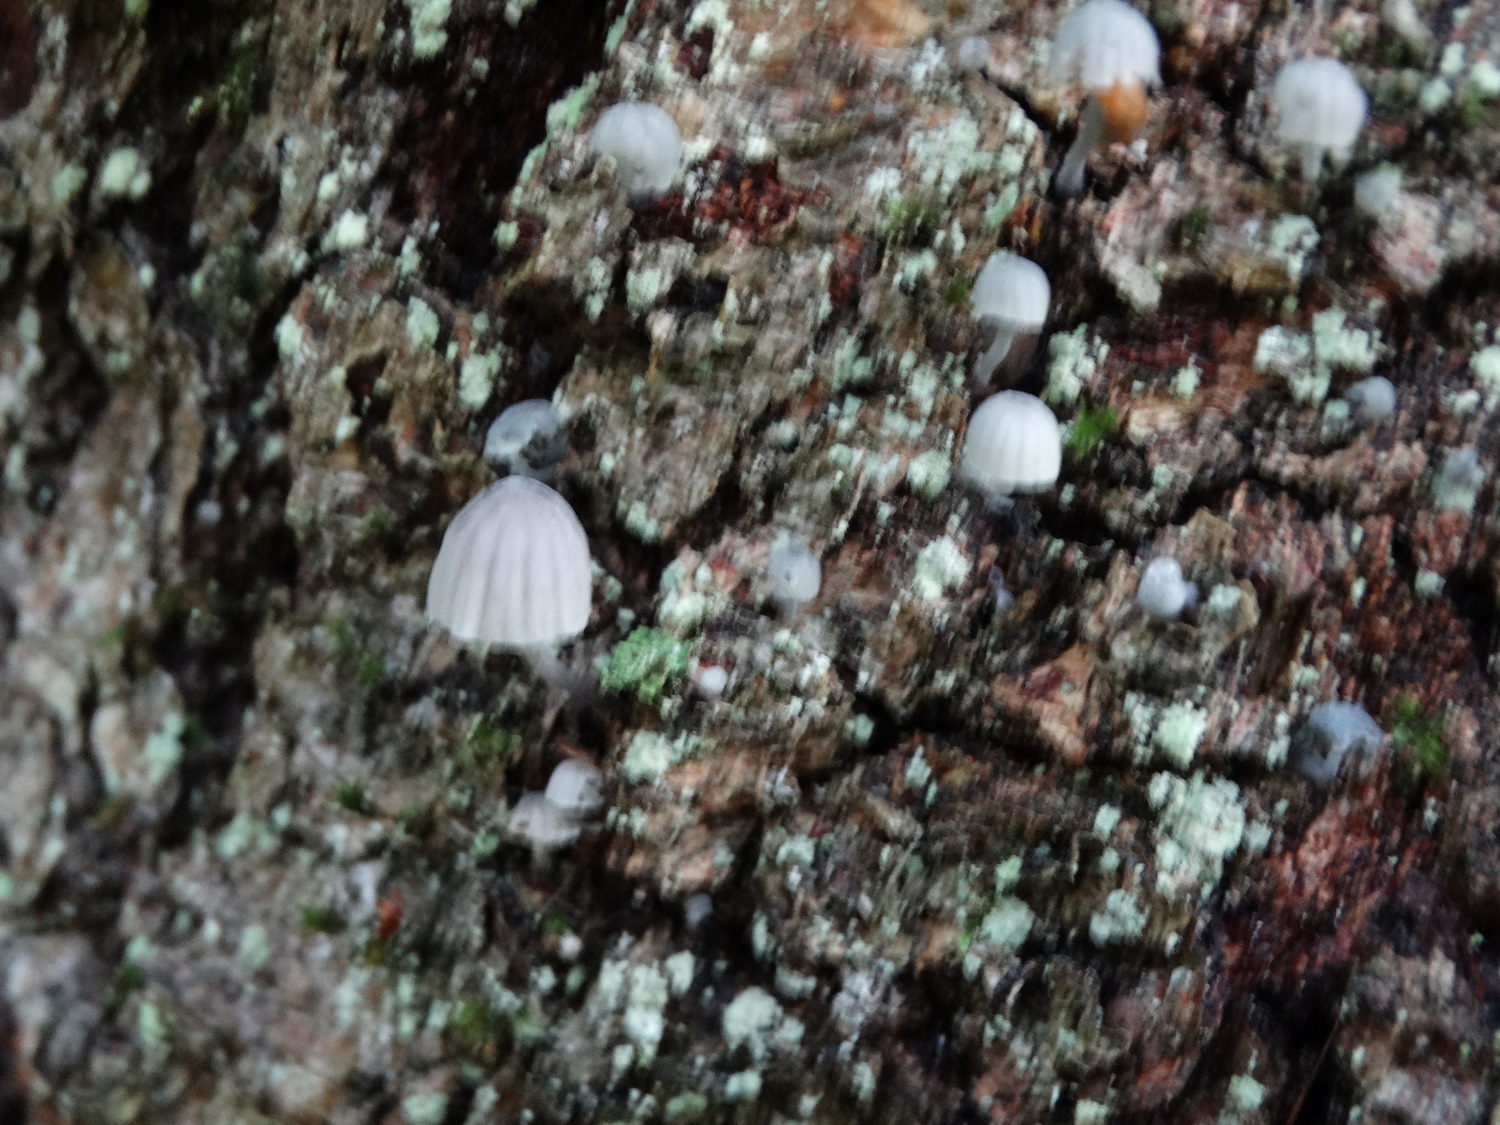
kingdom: Fungi
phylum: Basidiomycota
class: Agaricomycetes
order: Agaricales
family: Mycenaceae
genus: Mycena
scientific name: Mycena pseudocorticola
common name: gråblå bark-huesvamp
